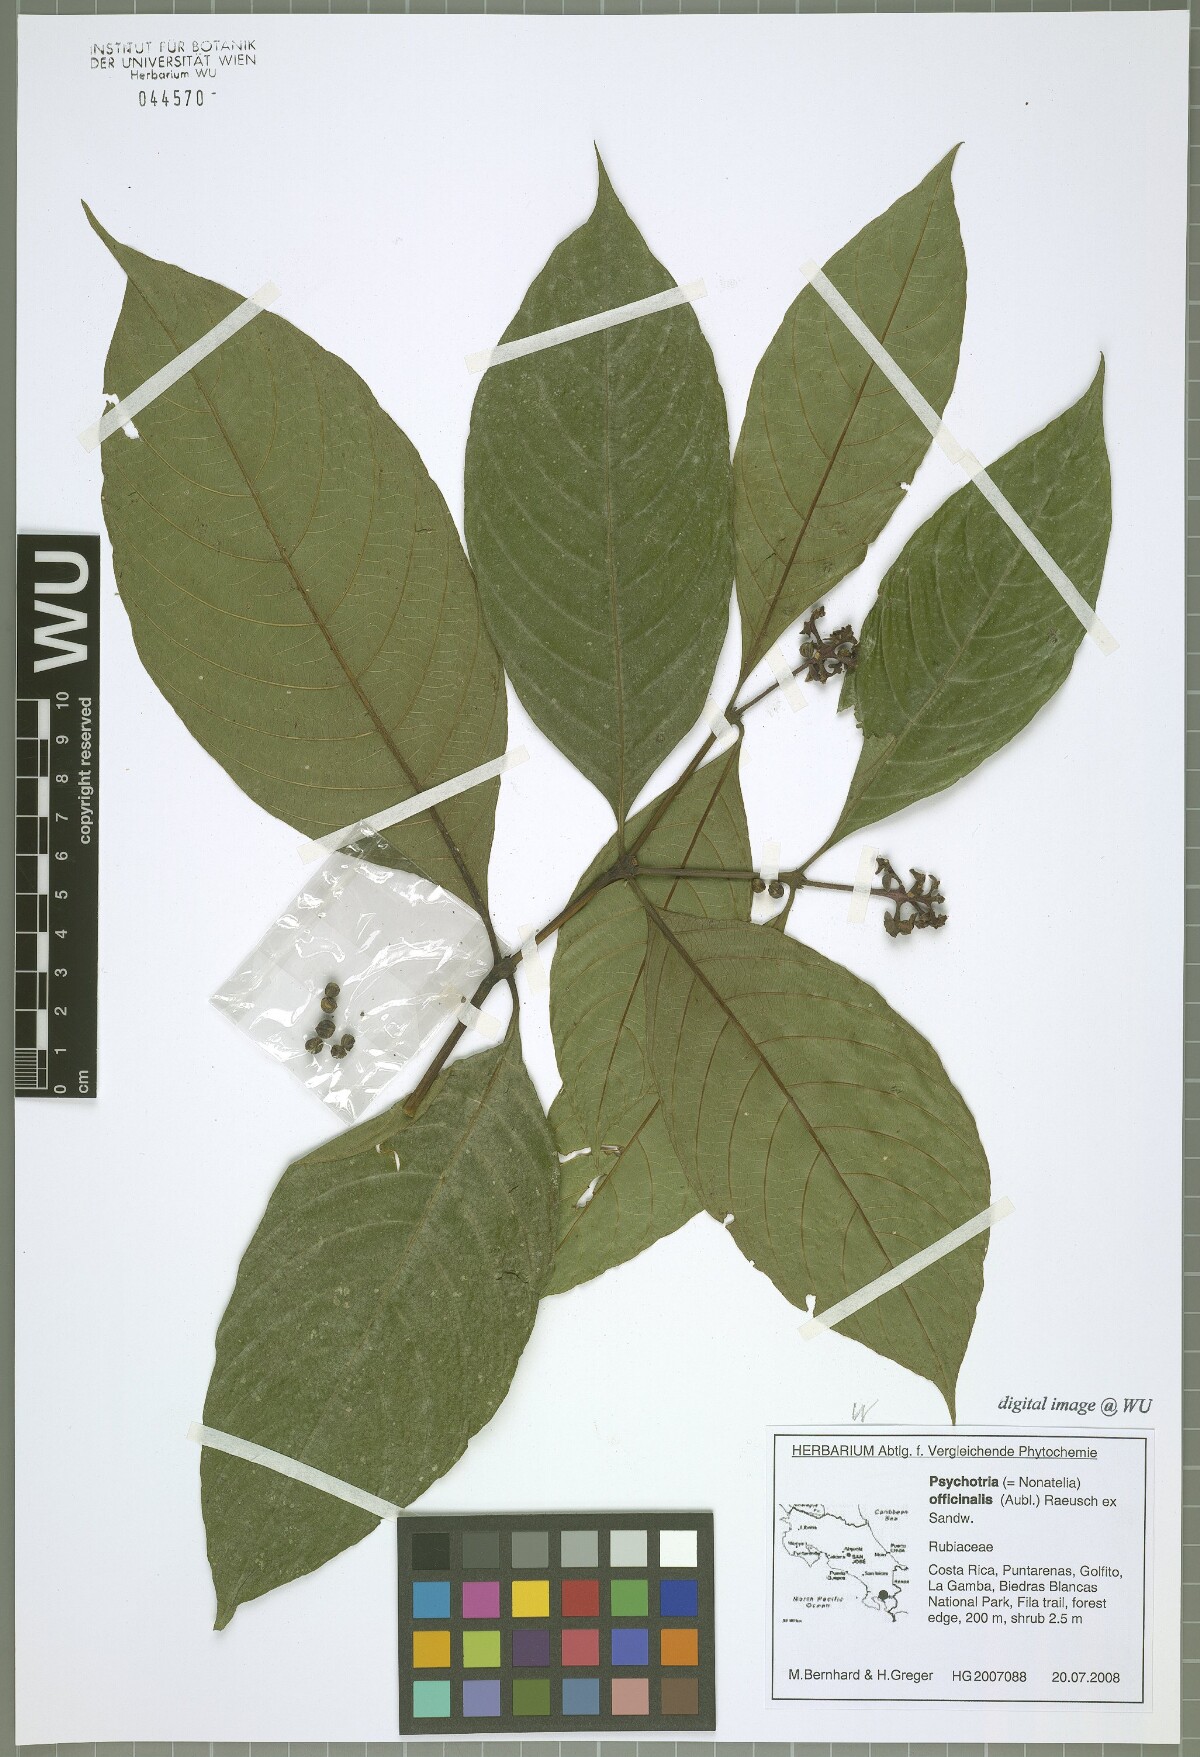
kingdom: Plantae
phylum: Tracheophyta
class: Magnoliopsida
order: Gentianales
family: Rubiaceae
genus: Palicourea
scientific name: Palicourea winkleri
